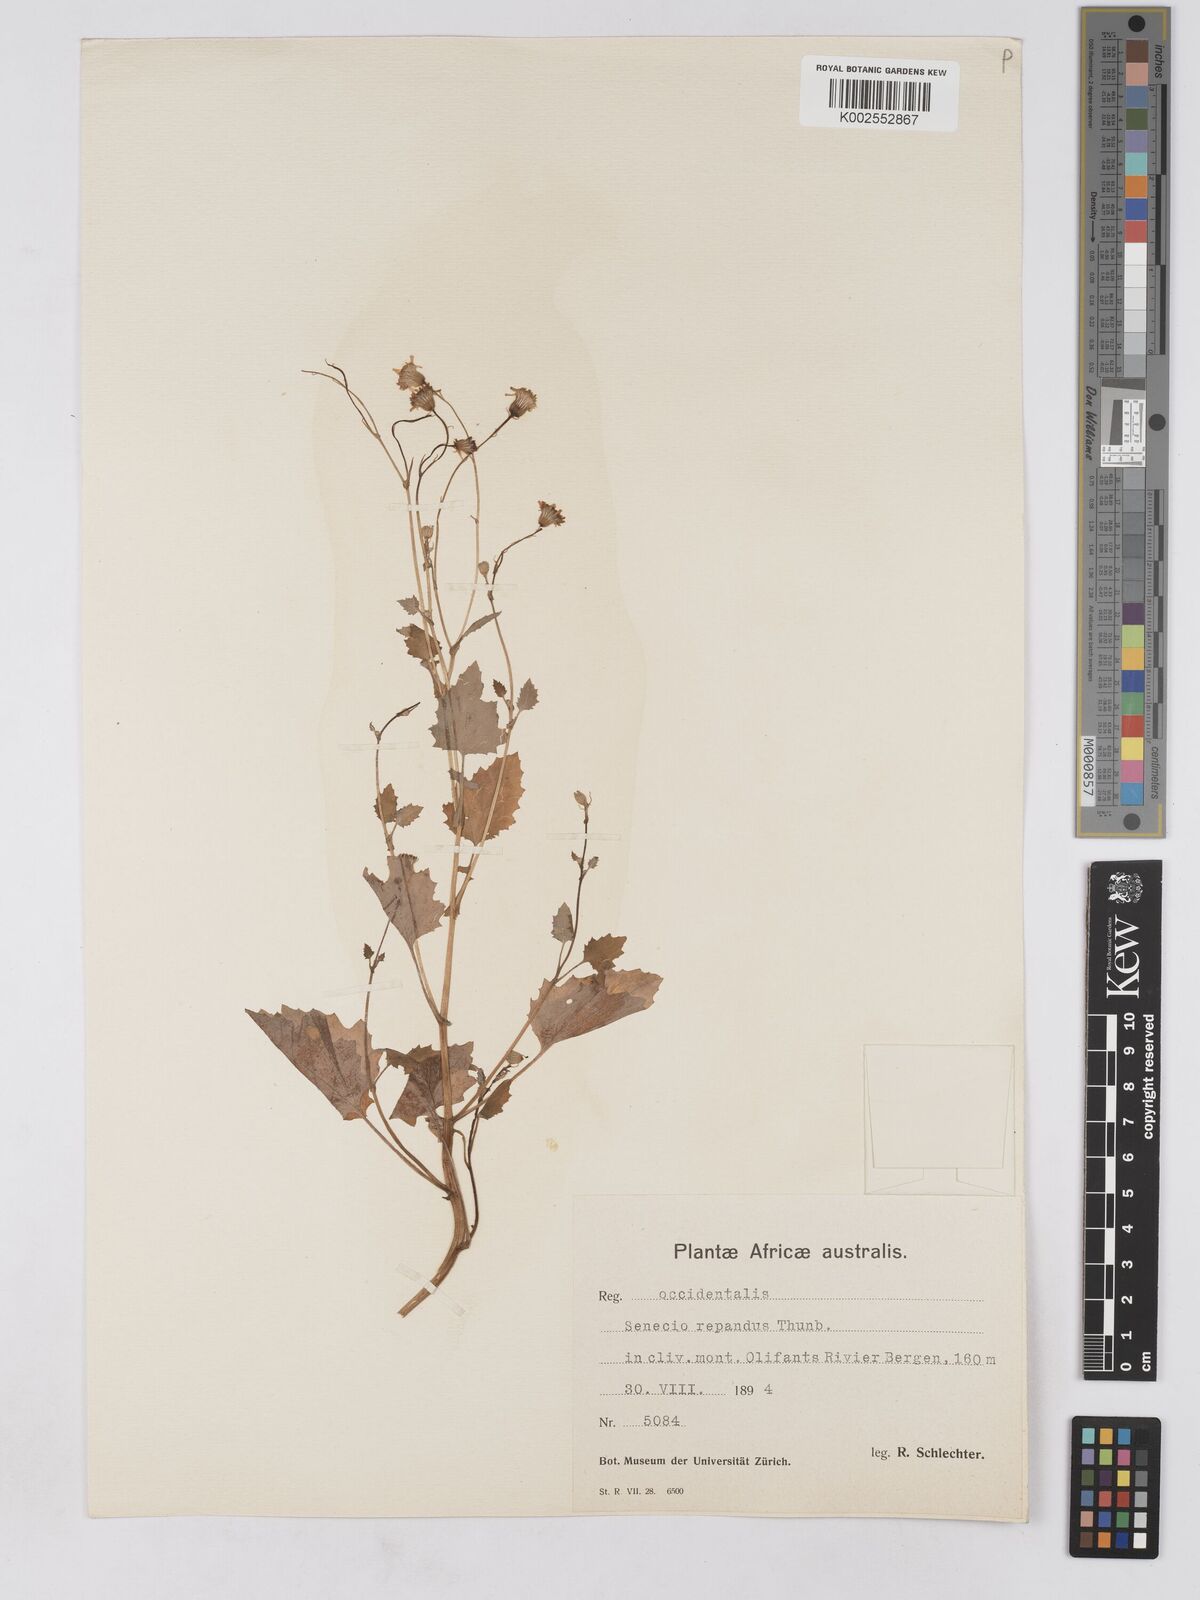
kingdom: Plantae
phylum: Tracheophyta
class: Magnoliopsida
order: Asterales
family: Asteraceae
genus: Senecio
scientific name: Senecio repandus
